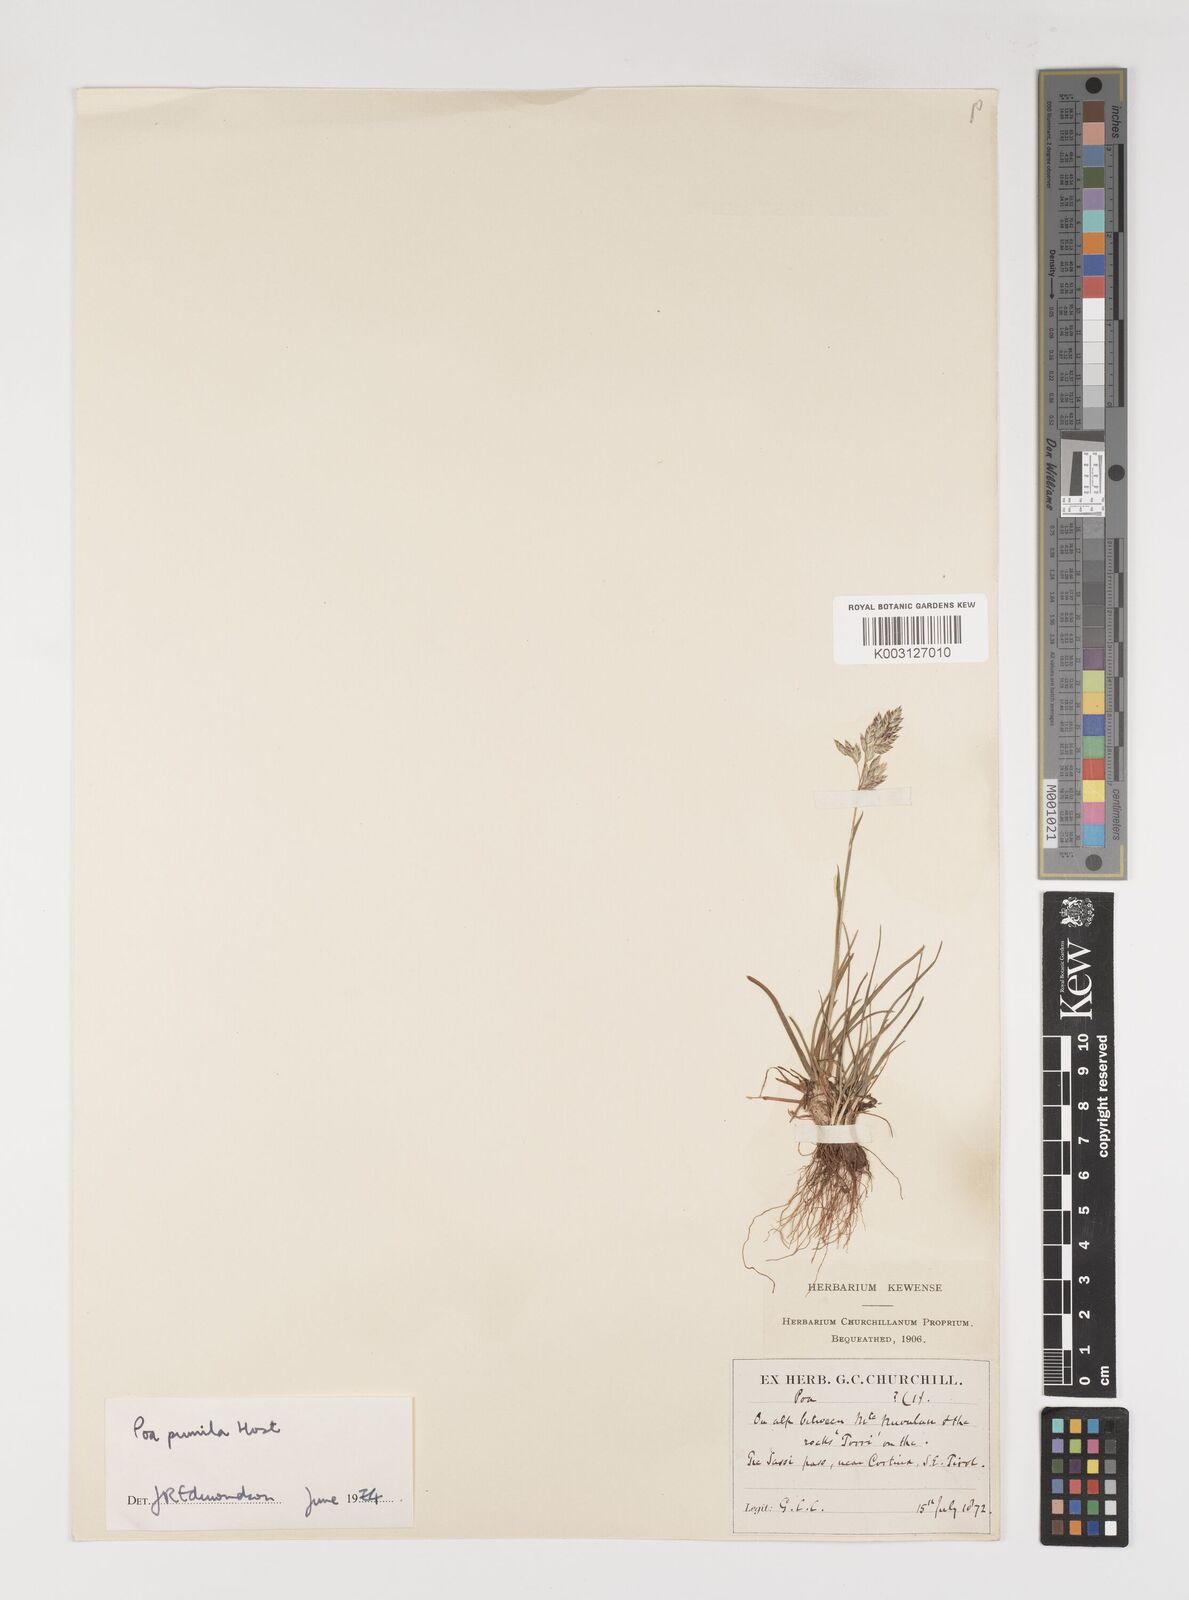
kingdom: Plantae
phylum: Tracheophyta
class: Liliopsida
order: Poales
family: Poaceae
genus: Poa
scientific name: Poa pumila
